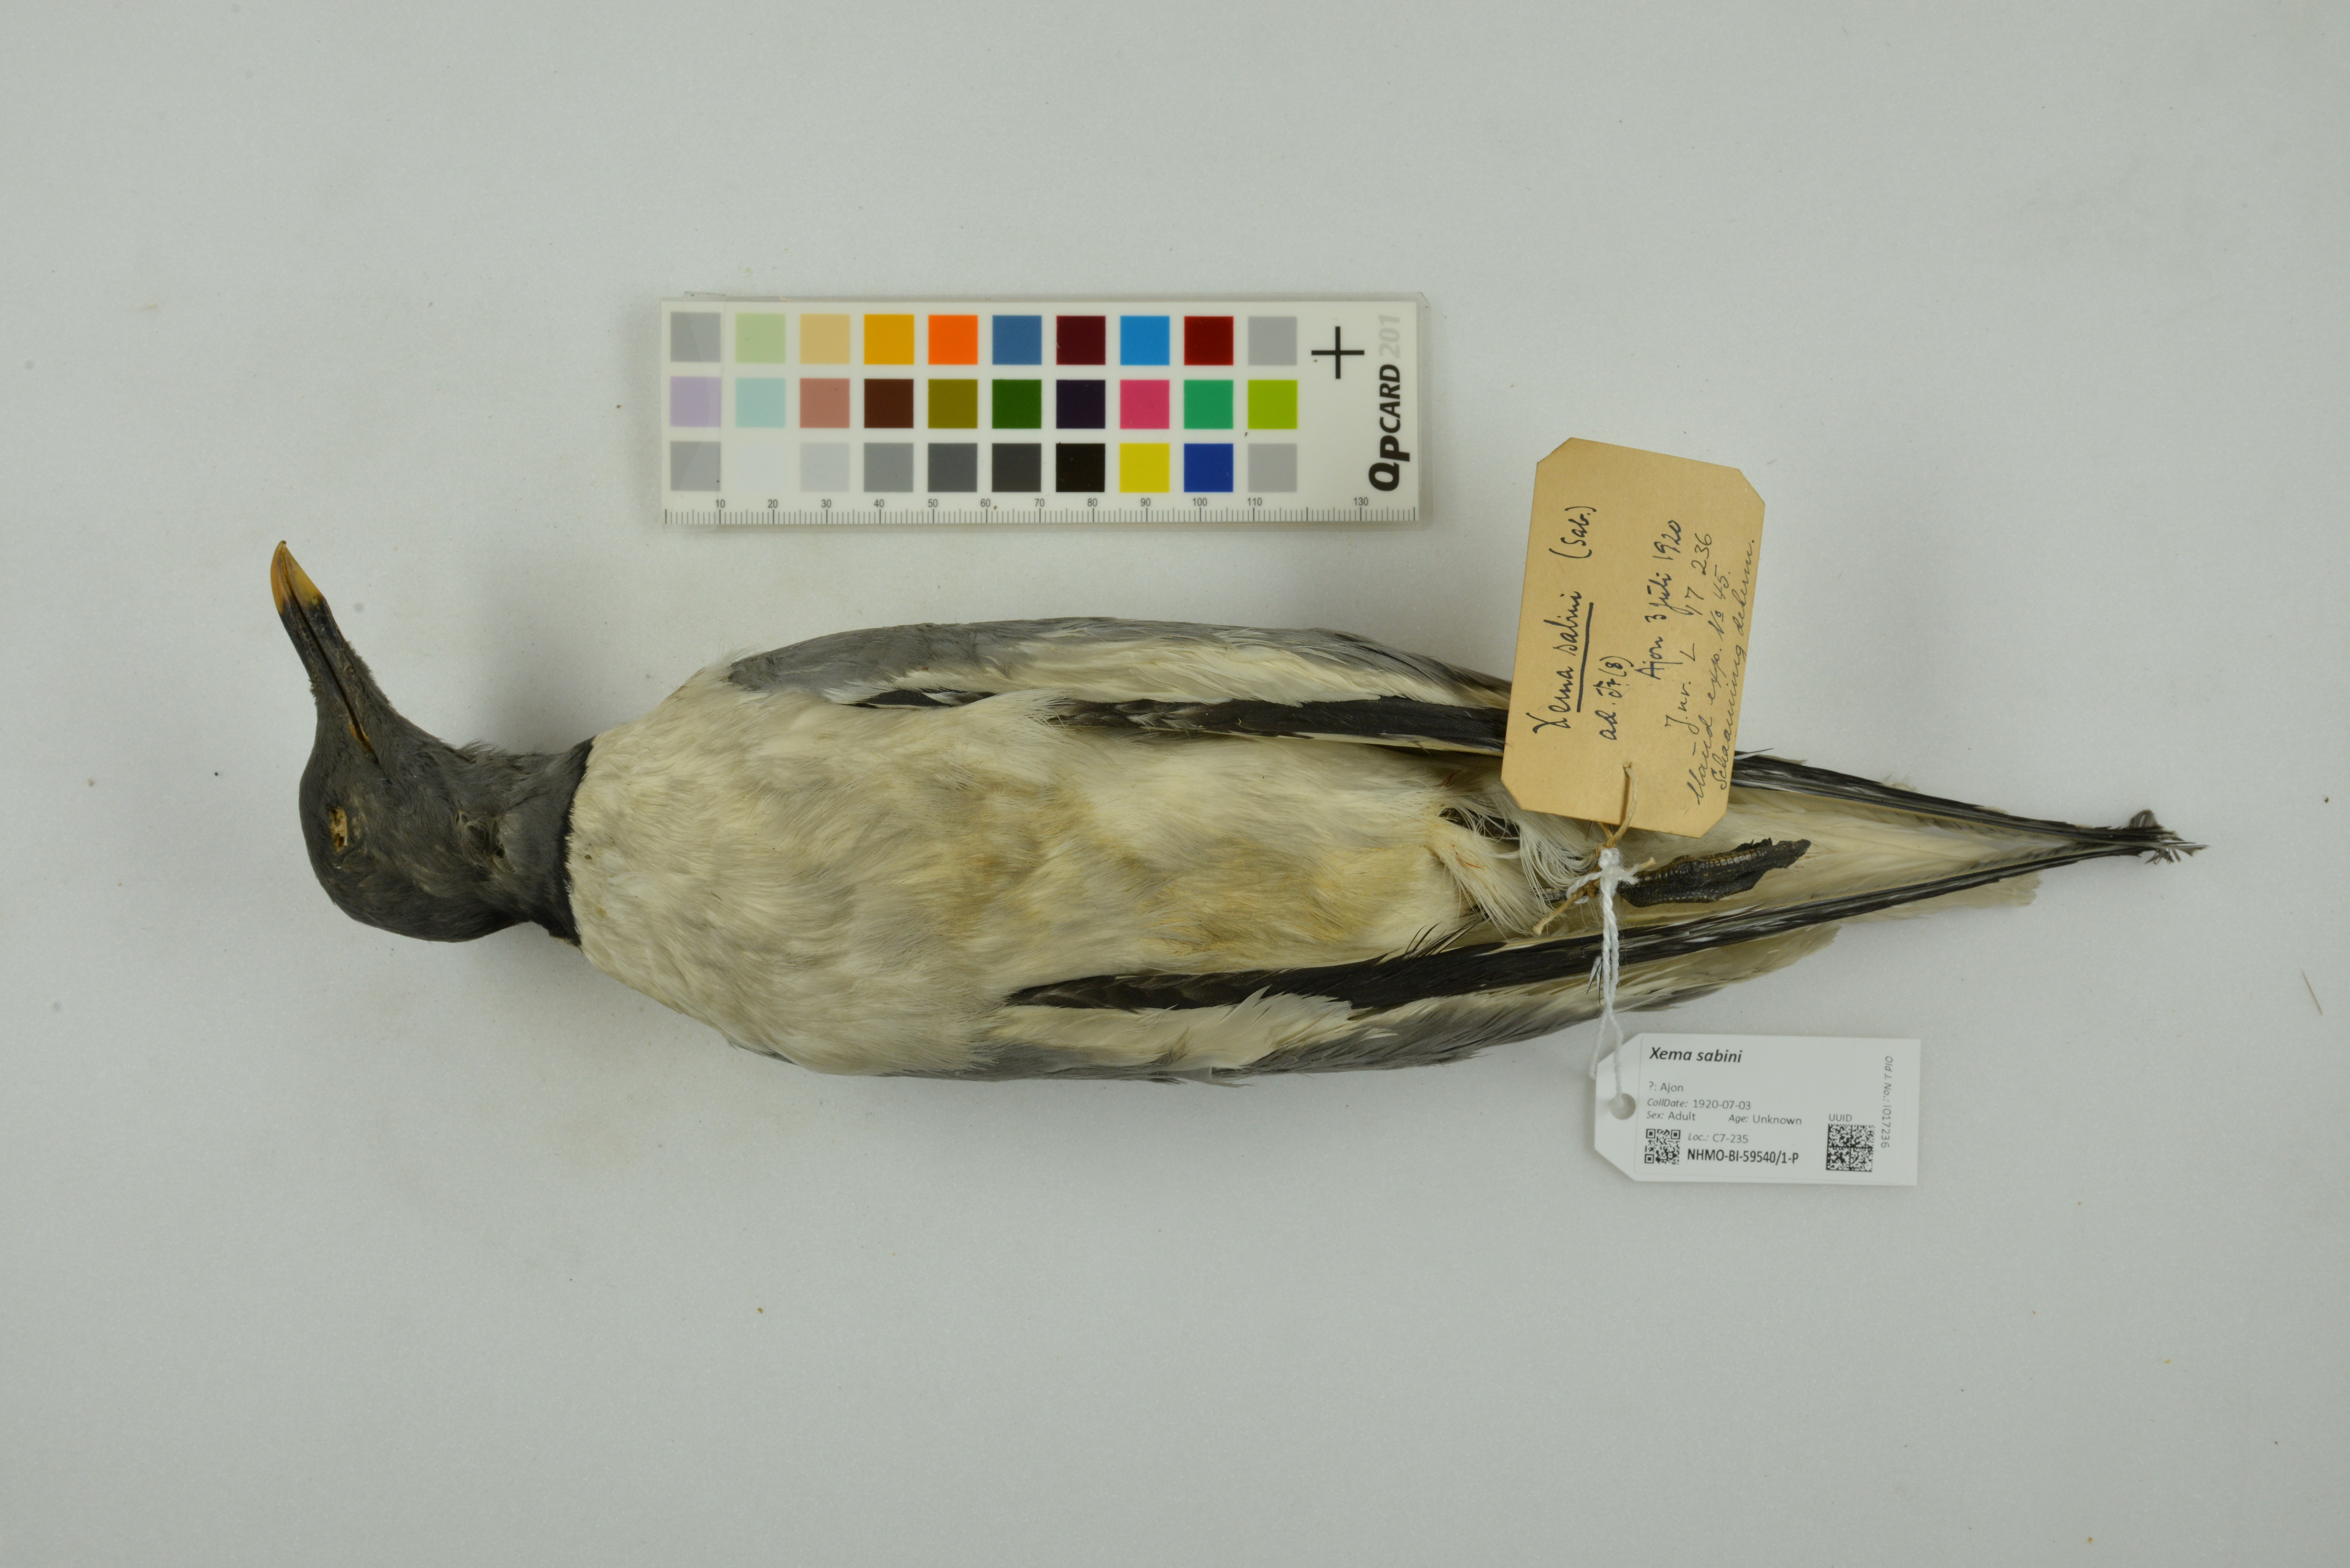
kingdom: Animalia
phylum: Chordata
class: Aves
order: Charadriiformes
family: Laridae
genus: Xema
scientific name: Xema sabini
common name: Sabine's gull
